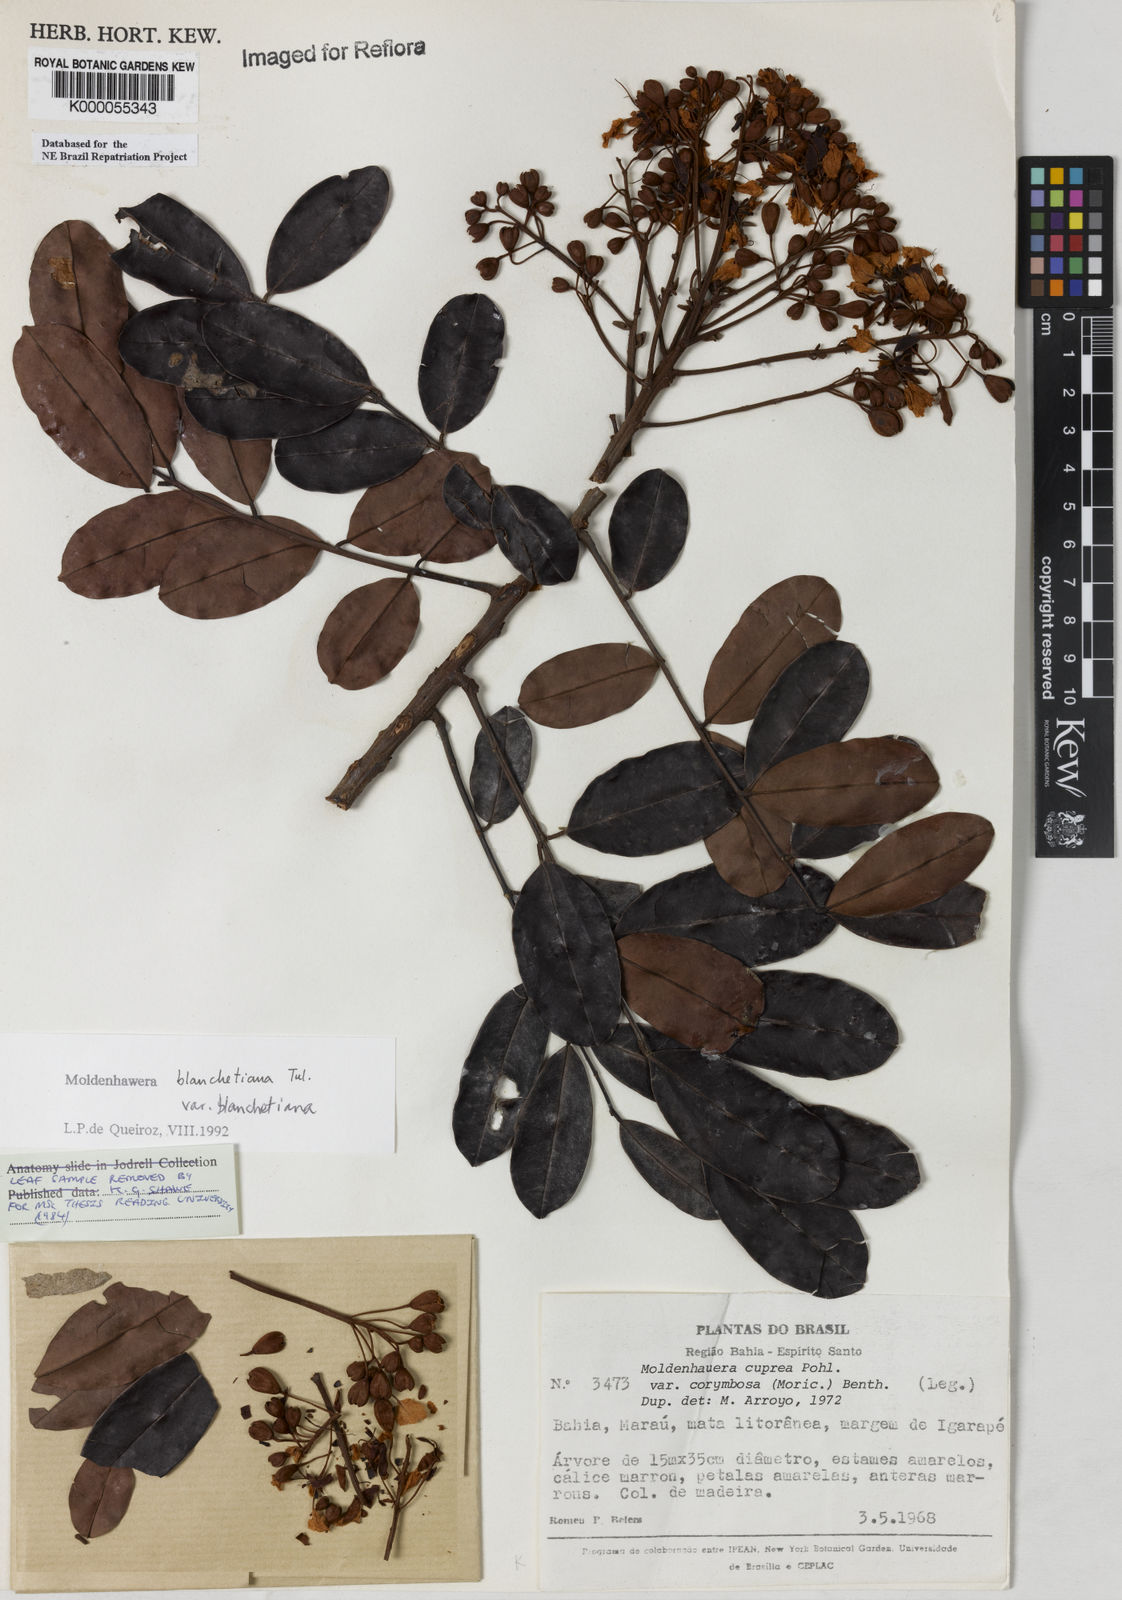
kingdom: Plantae
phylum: Tracheophyta
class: Magnoliopsida
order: Fabales
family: Fabaceae
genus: Moldenhawera
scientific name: Moldenhawera blanchetiana
